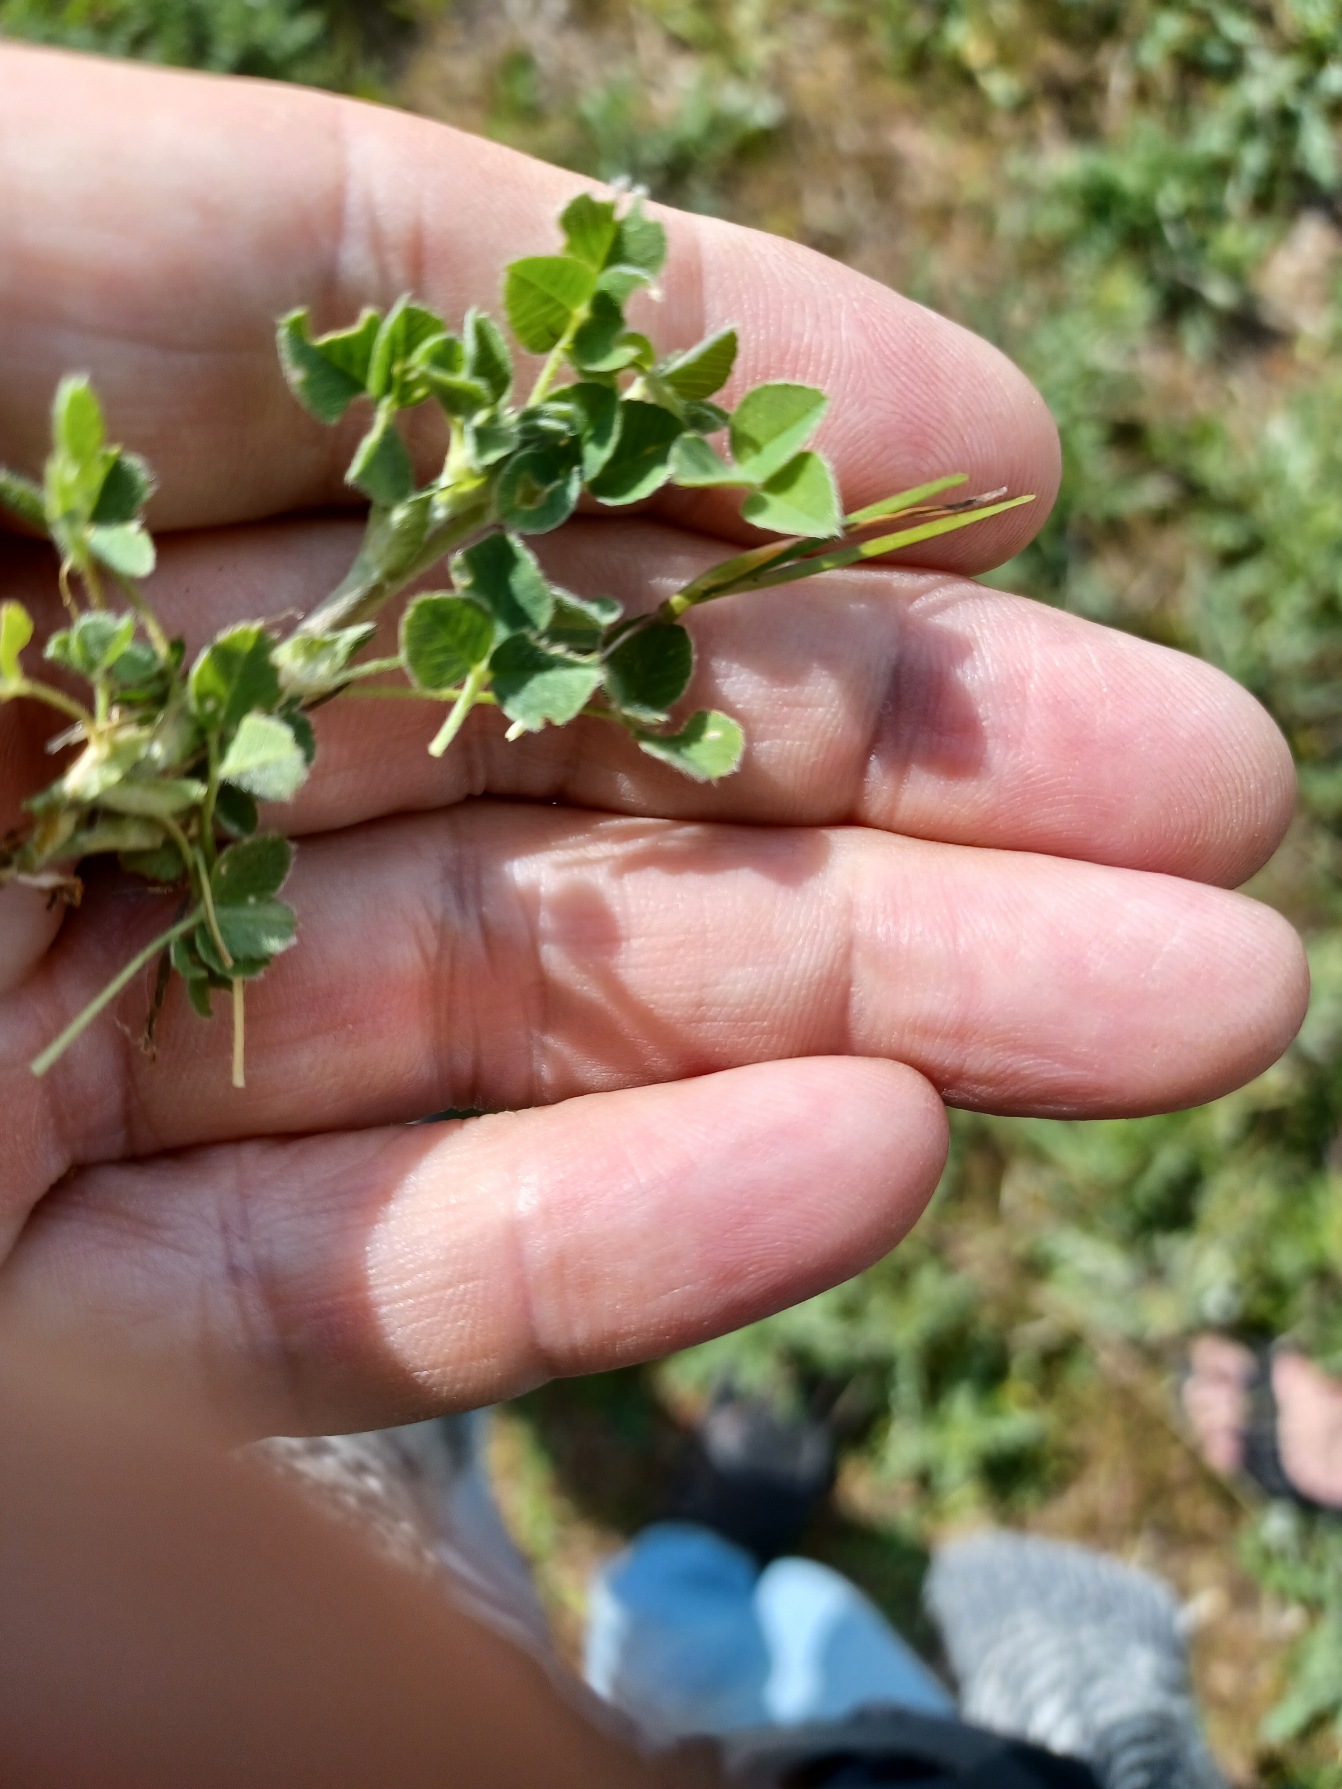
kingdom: Plantae
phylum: Tracheophyta
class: Magnoliopsida
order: Fabales
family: Fabaceae
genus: Medicago
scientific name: Medicago lupulina
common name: Humle-sneglebælg
